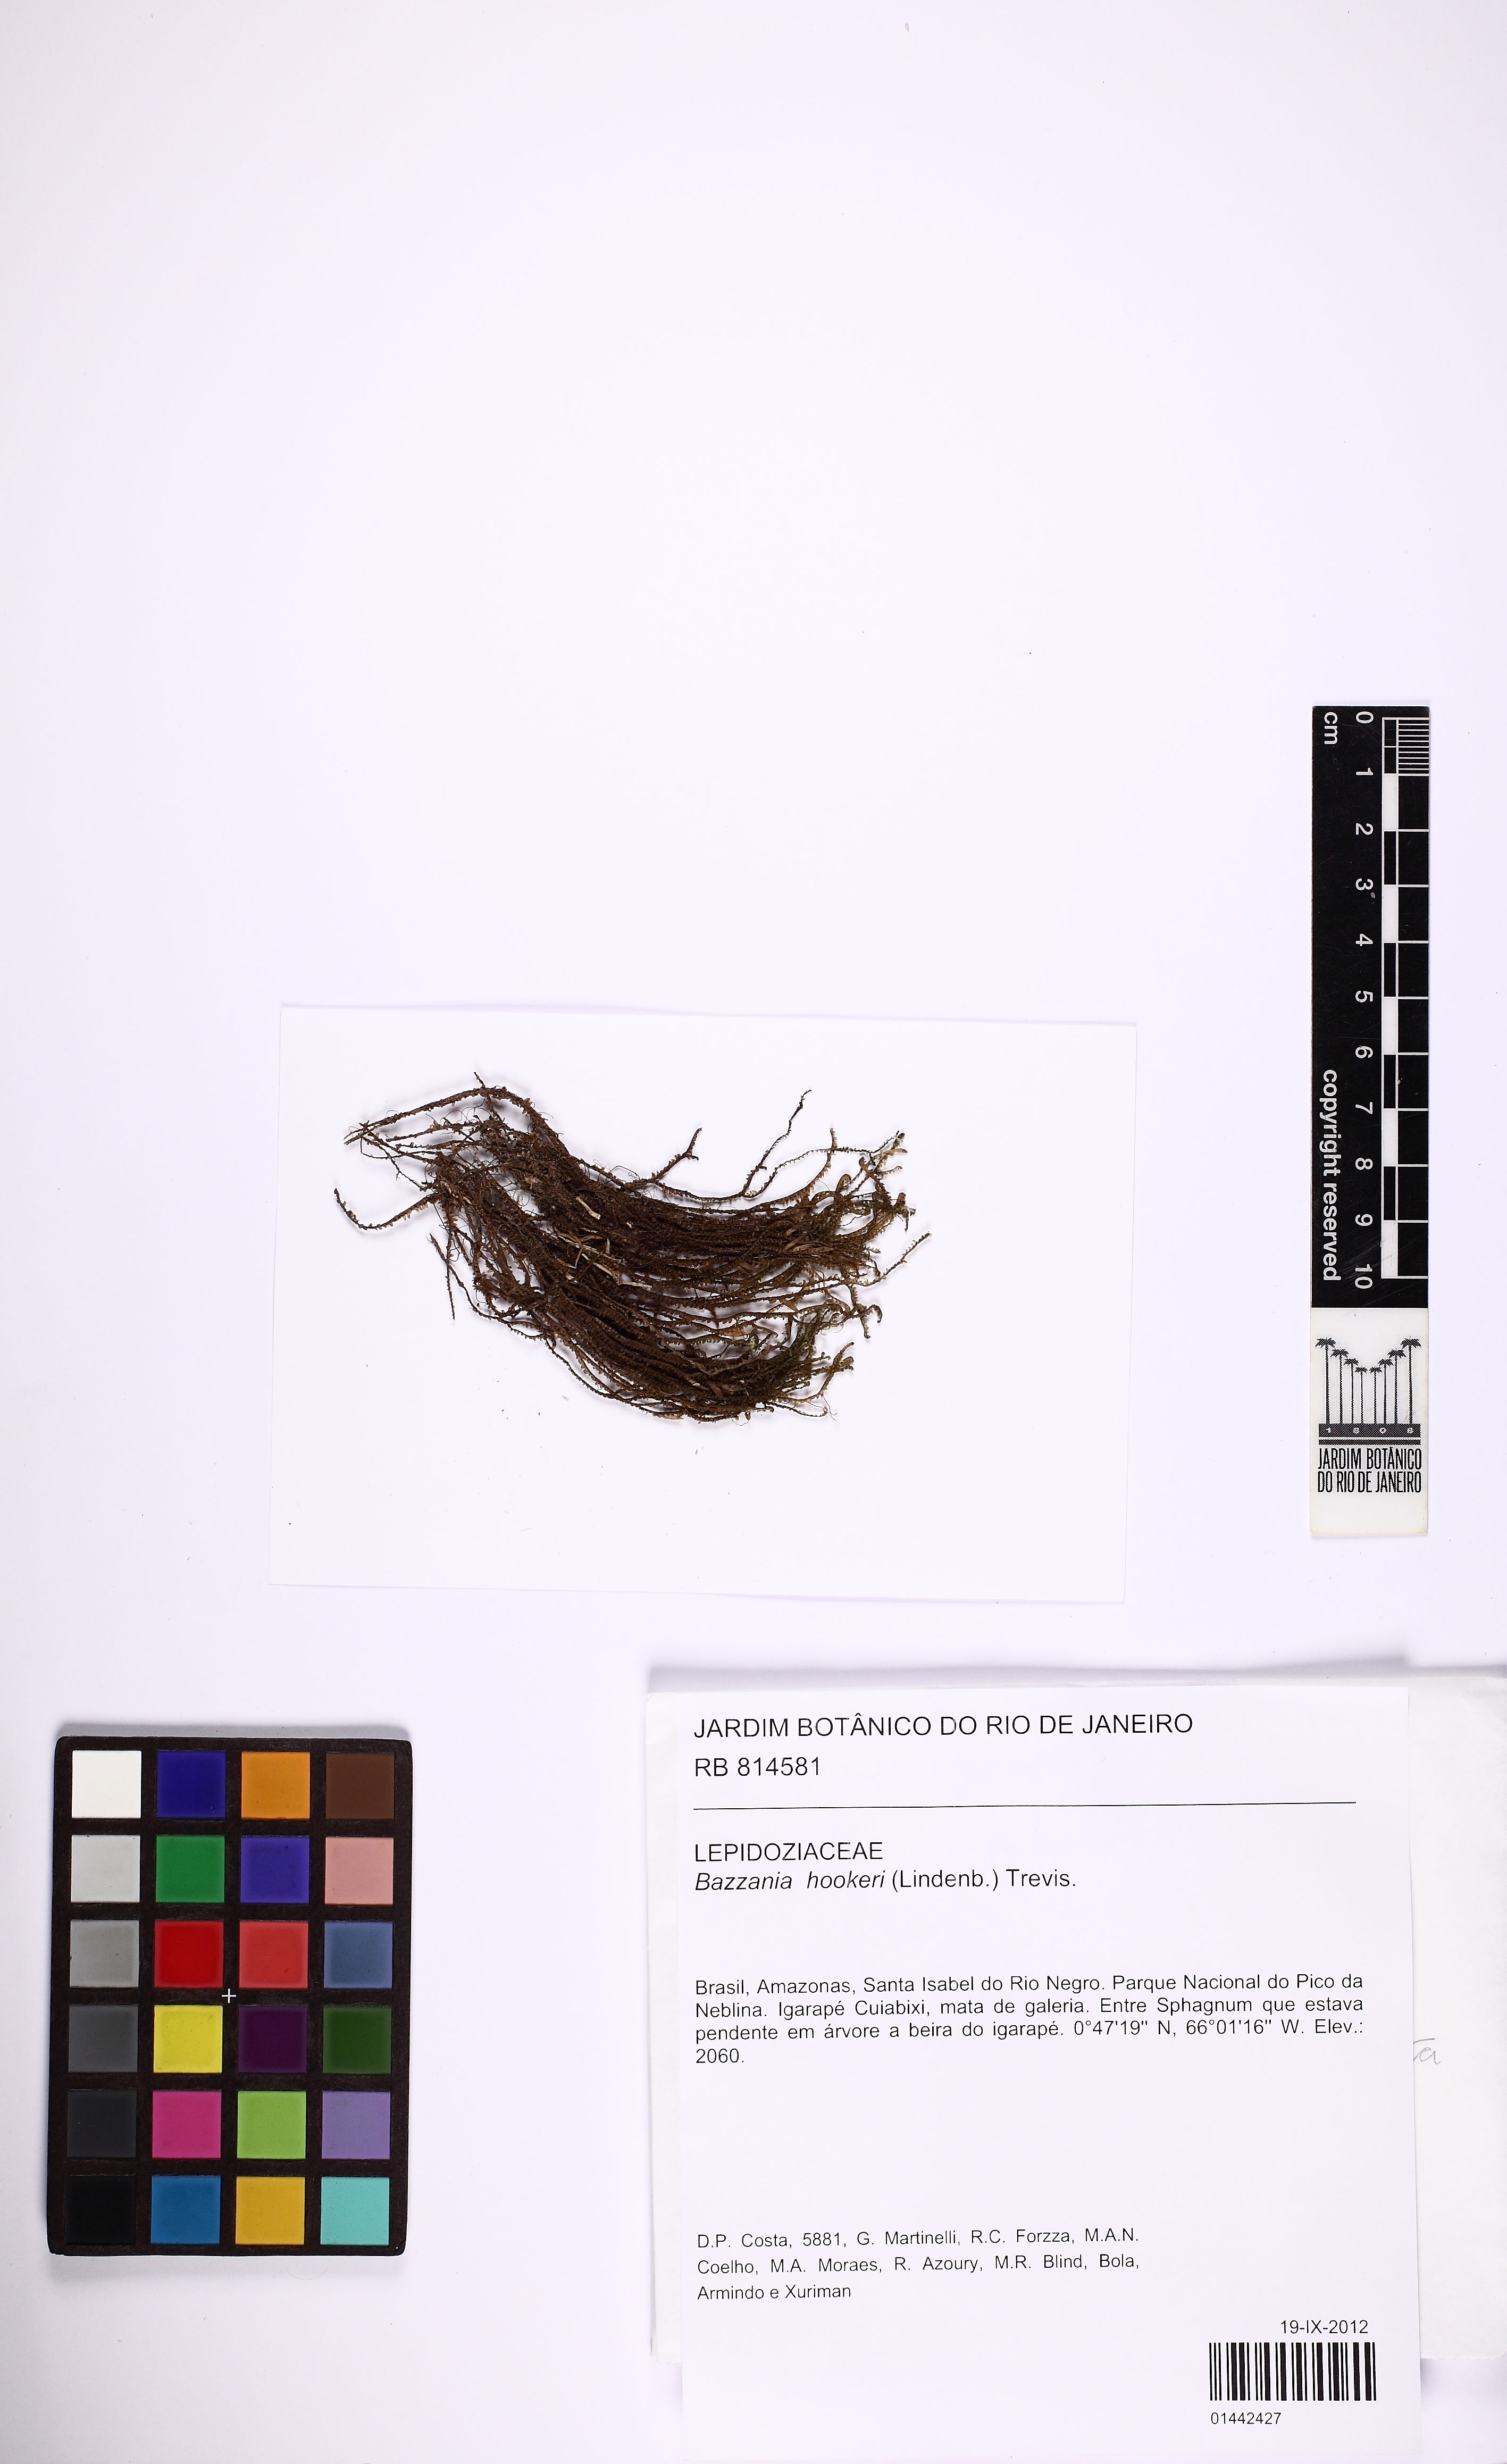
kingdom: Plantae
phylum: Marchantiophyta
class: Jungermanniopsida
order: Jungermanniales
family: Lepidoziaceae
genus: Bazzania
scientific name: Bazzania hookeri
